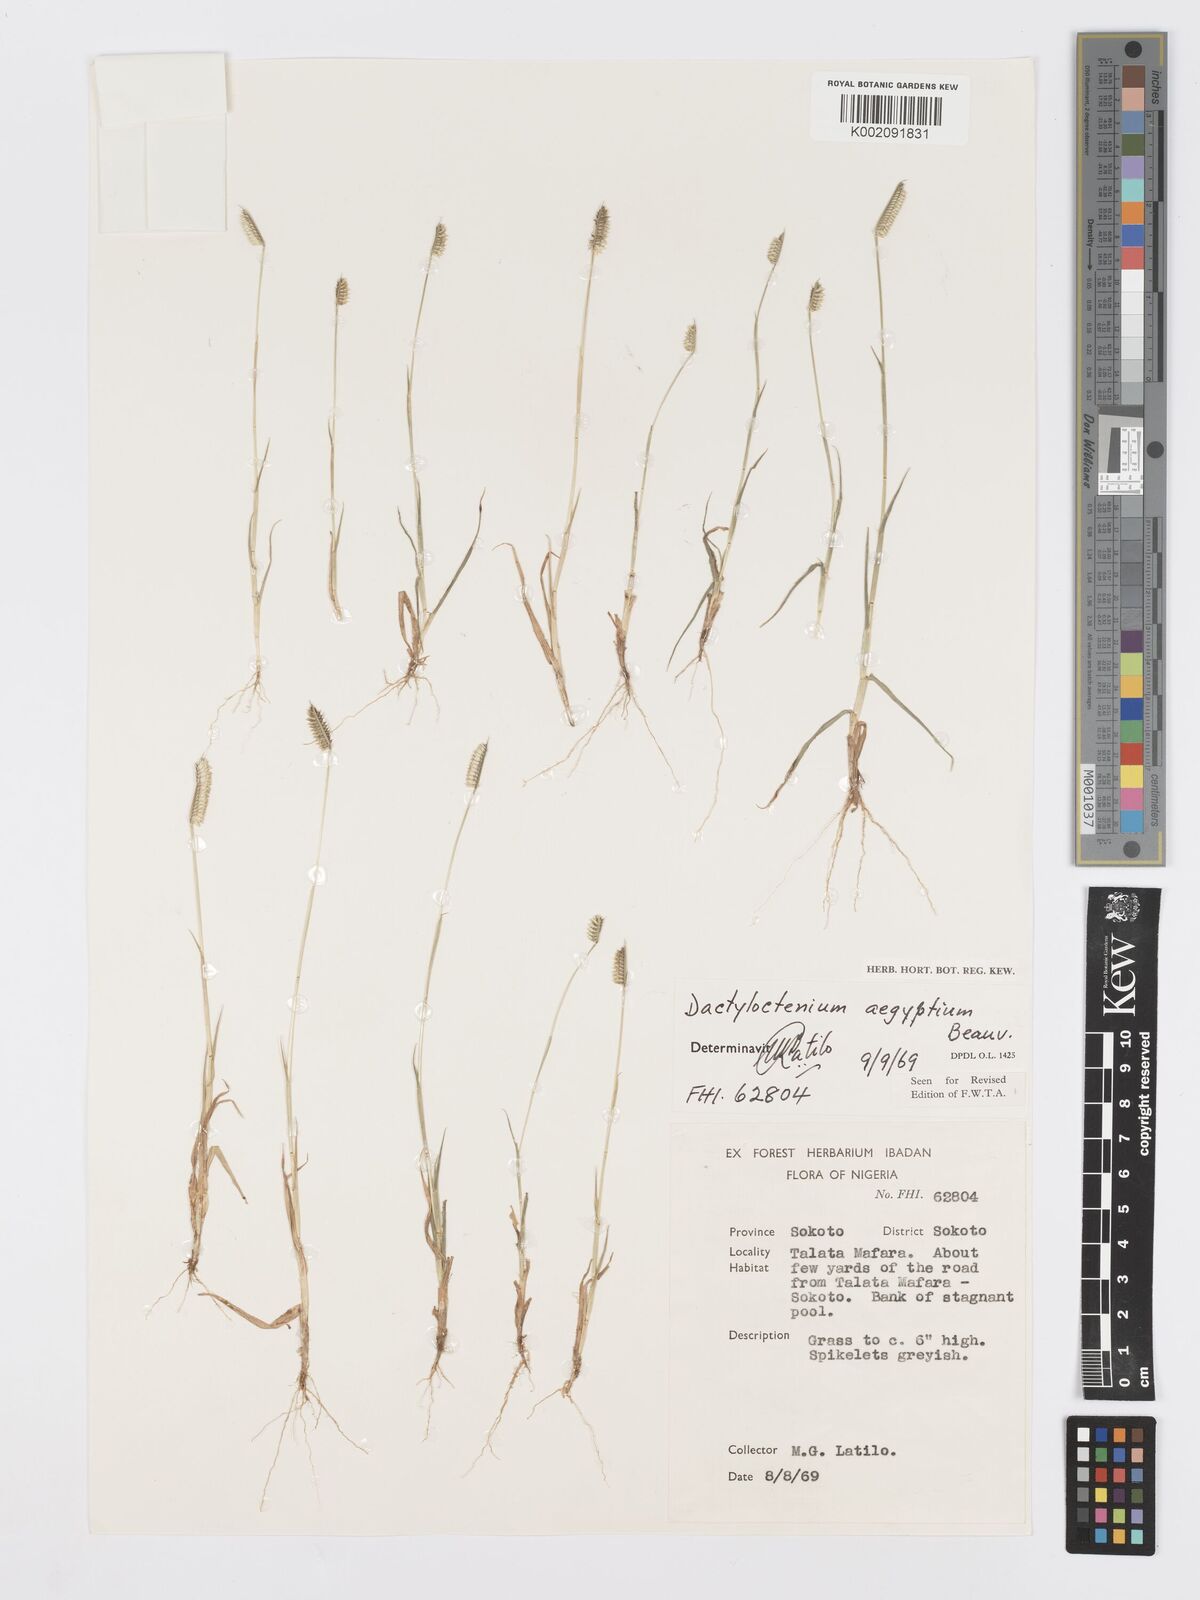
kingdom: Plantae
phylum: Tracheophyta
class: Liliopsida
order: Poales
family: Poaceae
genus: Dactyloctenium
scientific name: Dactyloctenium aegyptium
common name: Egyptian grass
